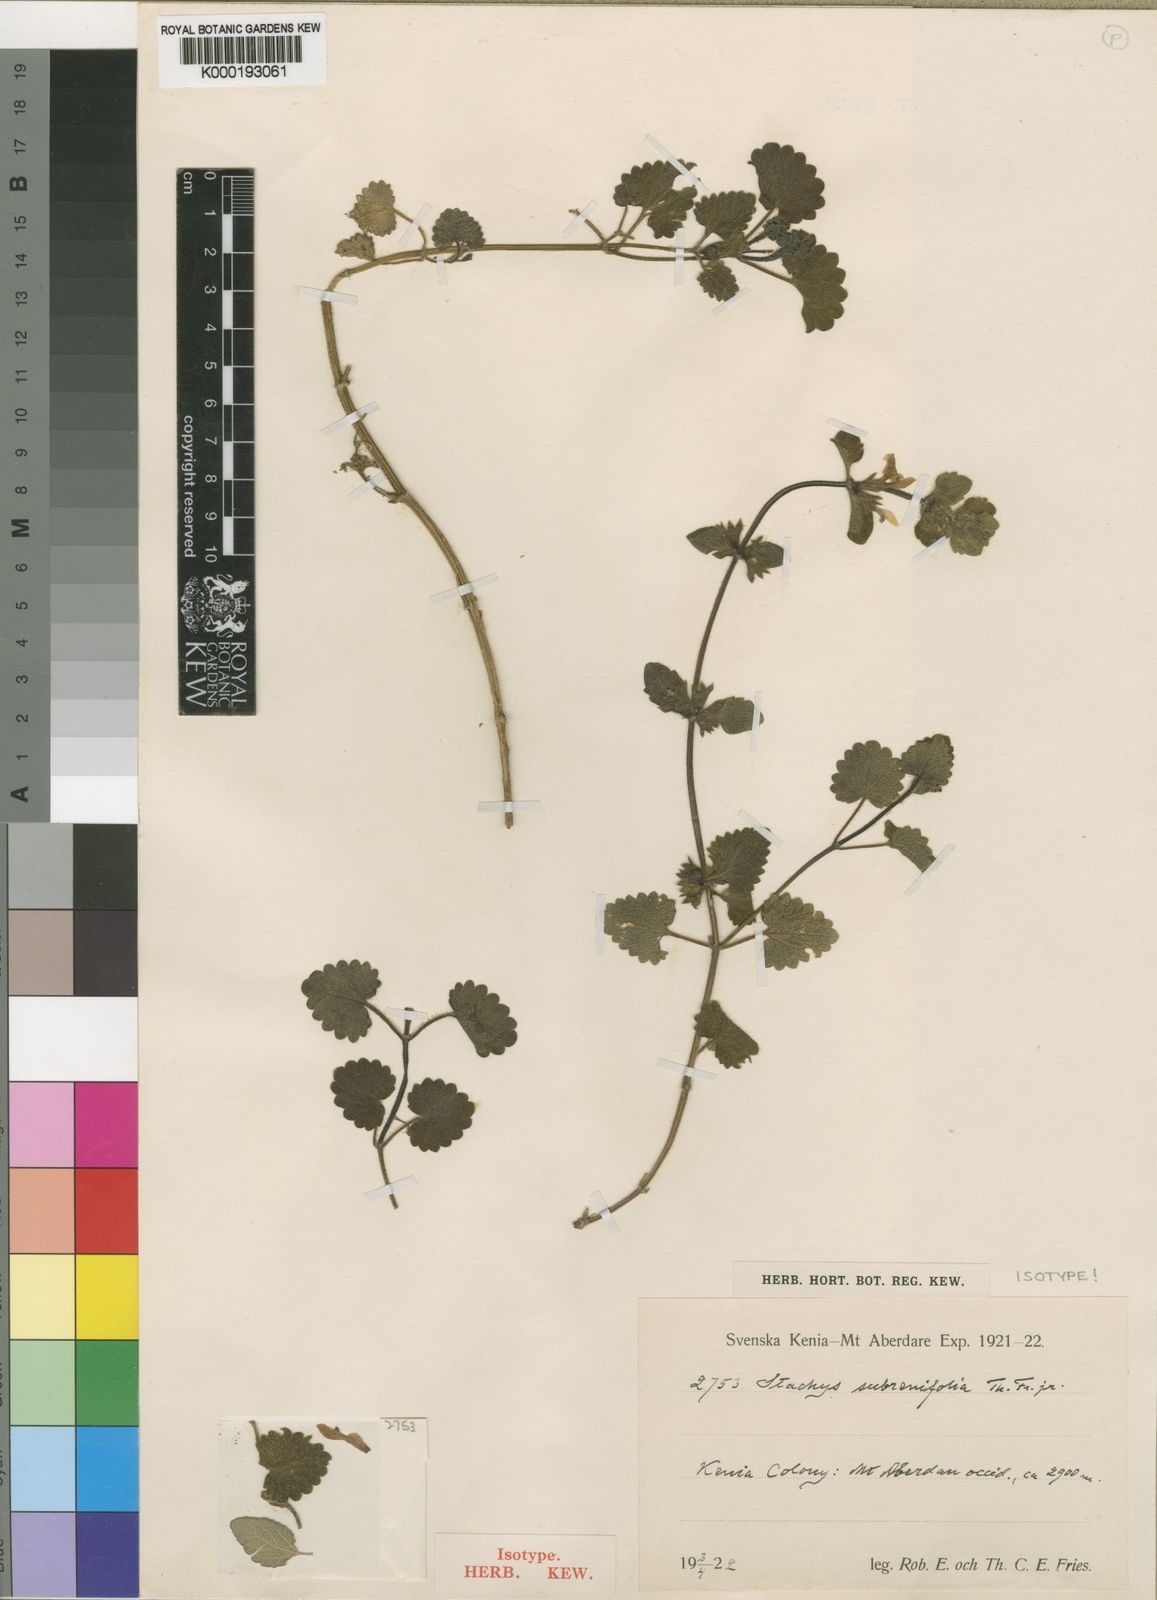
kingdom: Plantae
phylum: Tracheophyta
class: Magnoliopsida
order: Lamiales
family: Lamiaceae
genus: Stachys
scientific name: Stachys aculeolata
